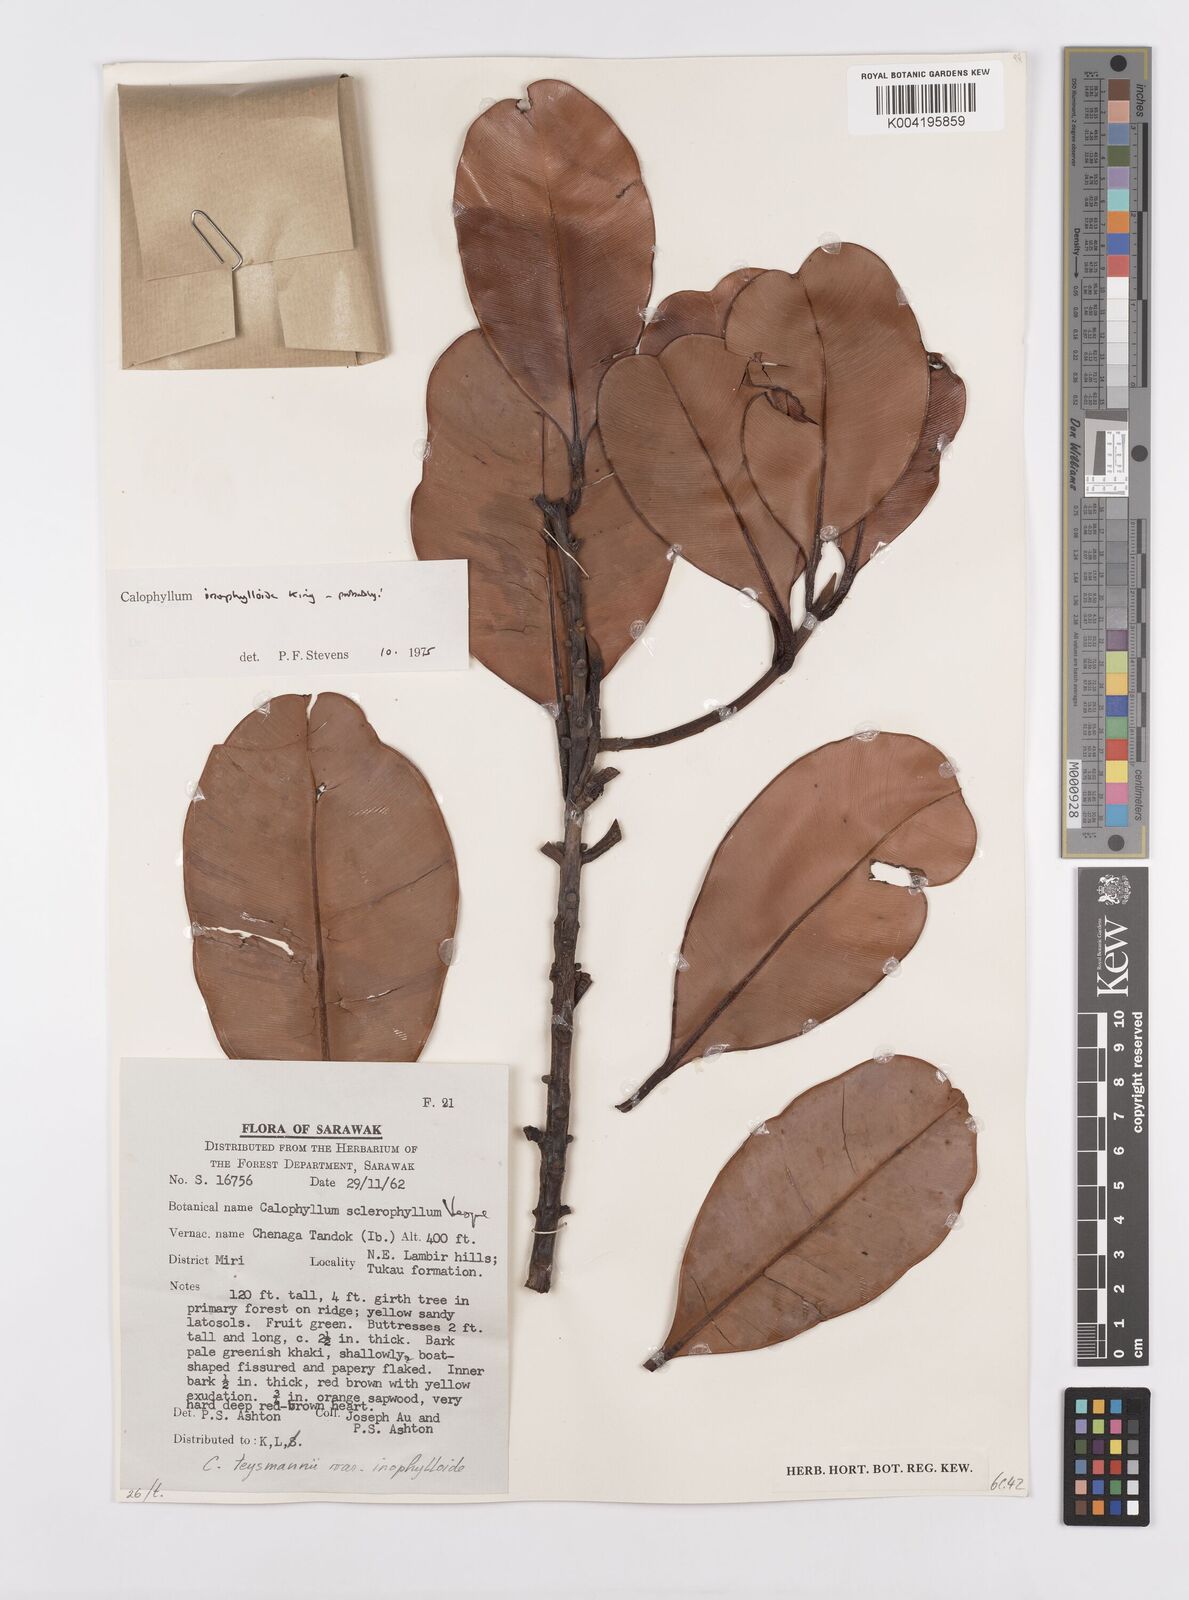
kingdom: Plantae
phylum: Tracheophyta
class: Magnoliopsida
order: Malpighiales
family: Calophyllaceae
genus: Calophyllum
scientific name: Calophyllum teysmannii
